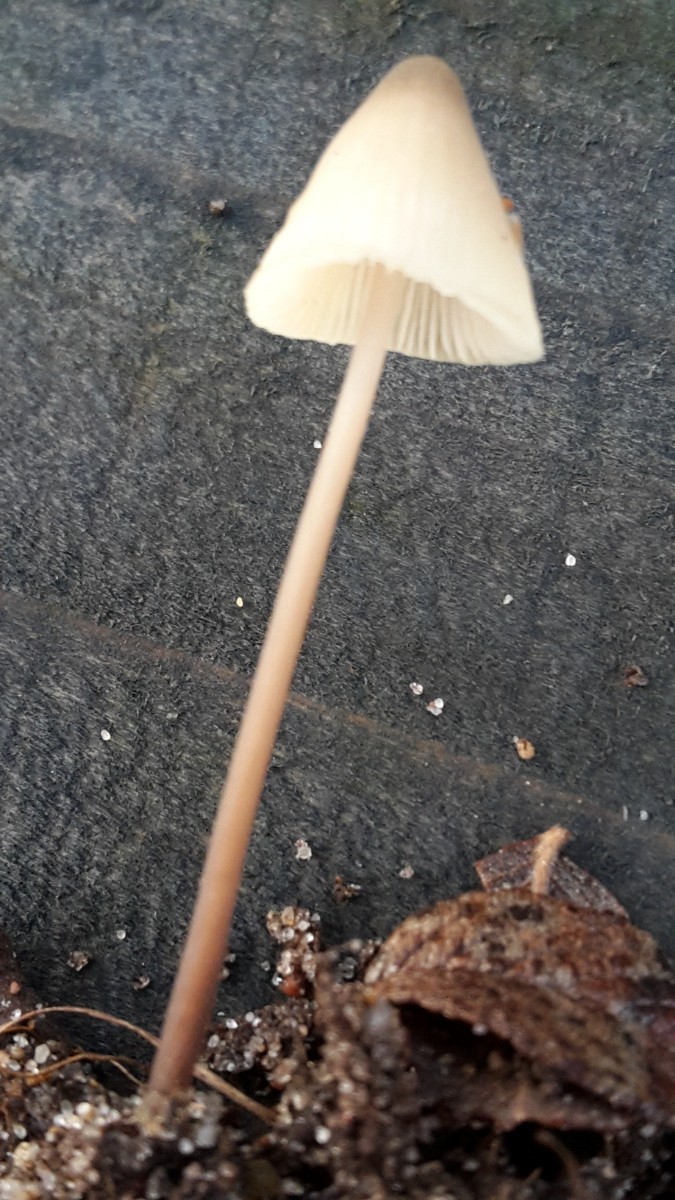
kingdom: Fungi
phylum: Basidiomycota
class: Agaricomycetes
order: Agaricales
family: Mycenaceae
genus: Mycena
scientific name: Mycena
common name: huesvamp
